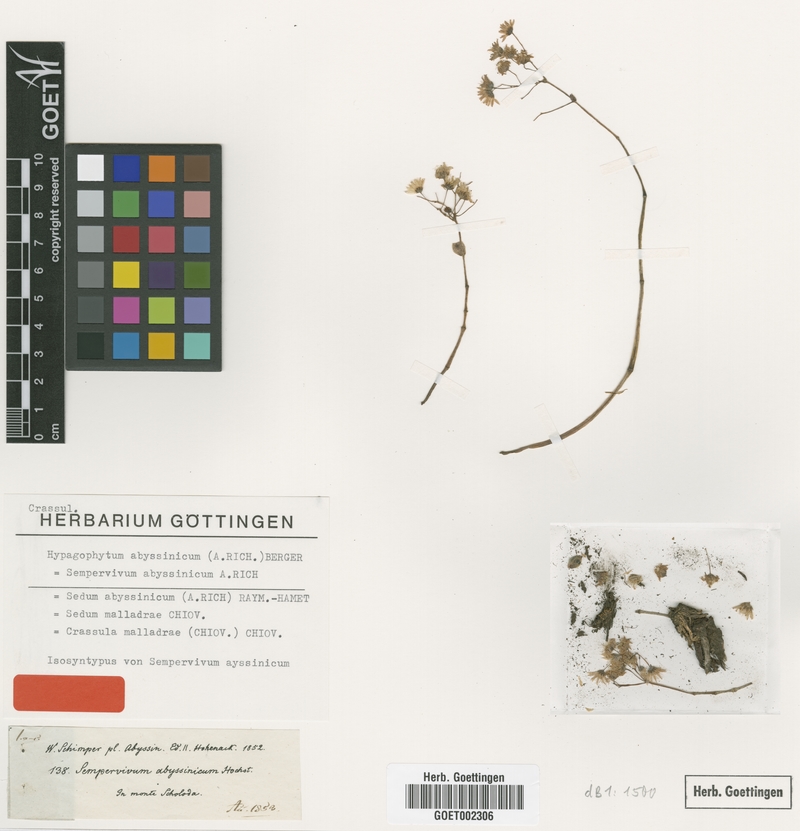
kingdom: Plantae
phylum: Tracheophyta
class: Magnoliopsida
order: Saxifragales
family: Crassulaceae
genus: Hypagophytum
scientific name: Hypagophytum abyssinicum
